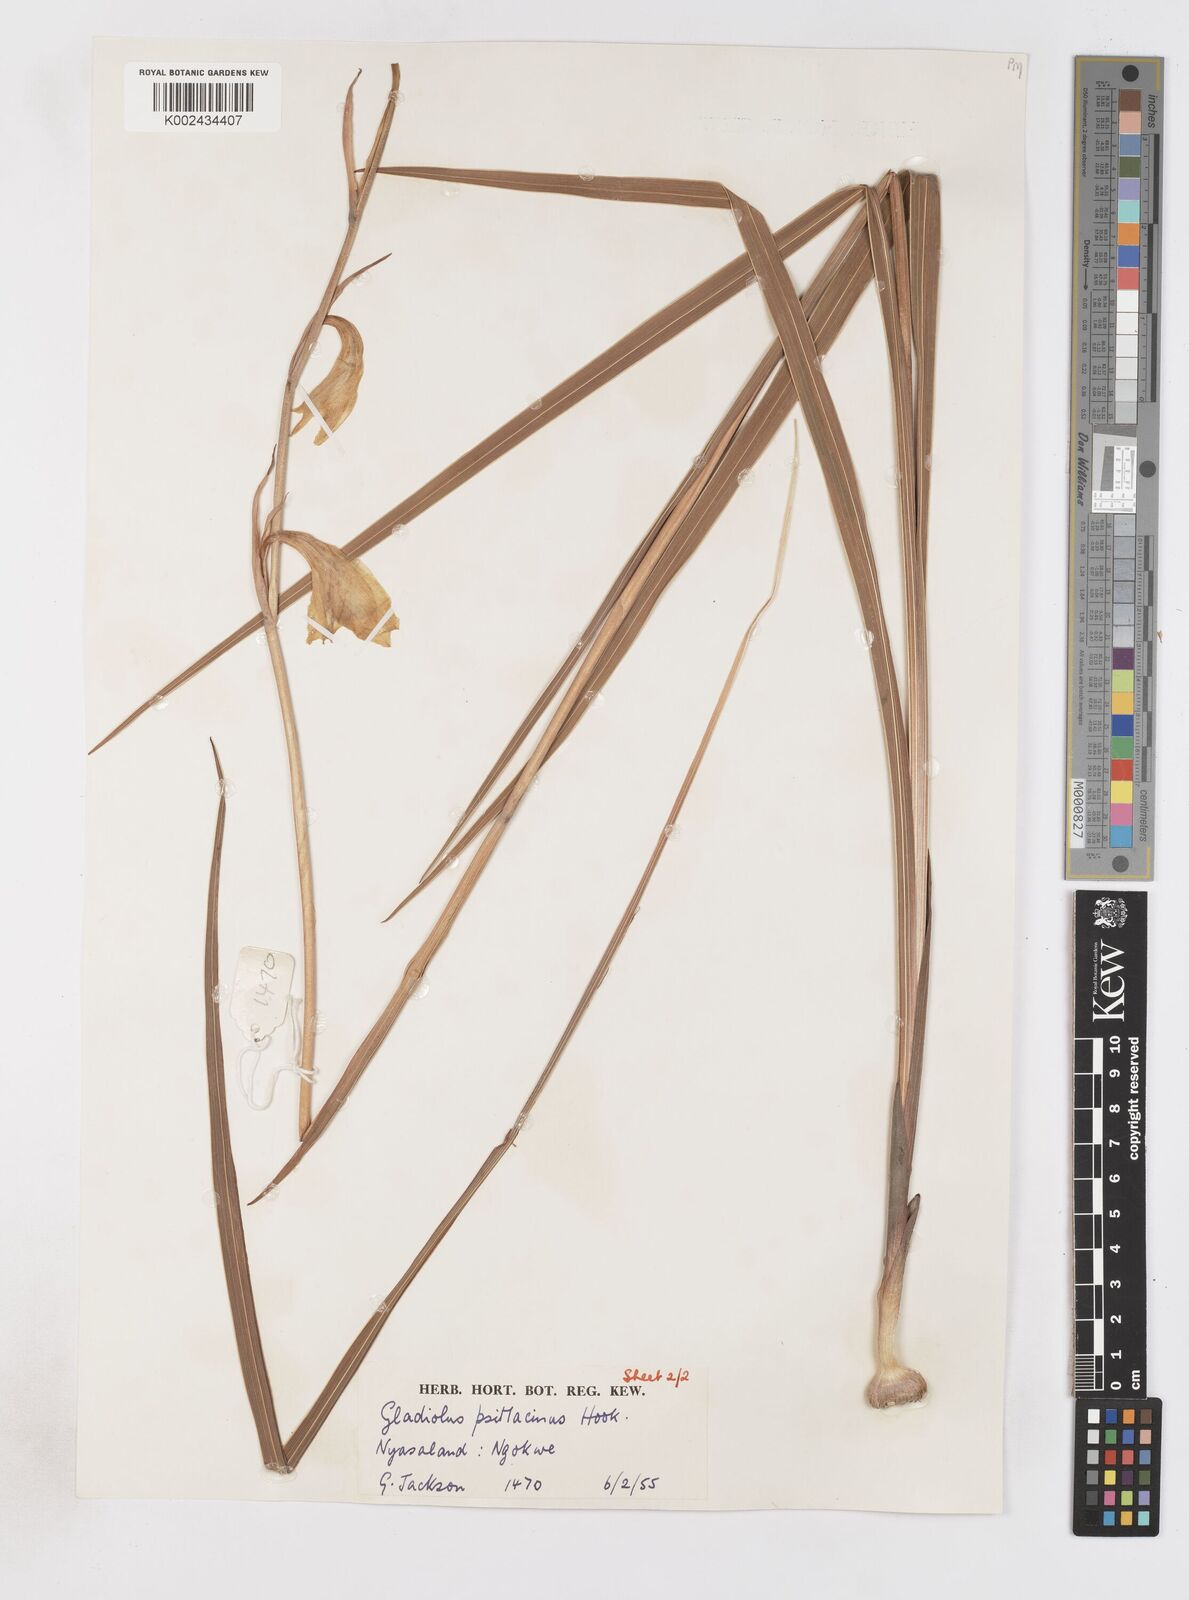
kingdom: Plantae
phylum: Tracheophyta
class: Liliopsida
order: Asparagales
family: Iridaceae
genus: Gladiolus
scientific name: Gladiolus dalenii
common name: Cornflag
